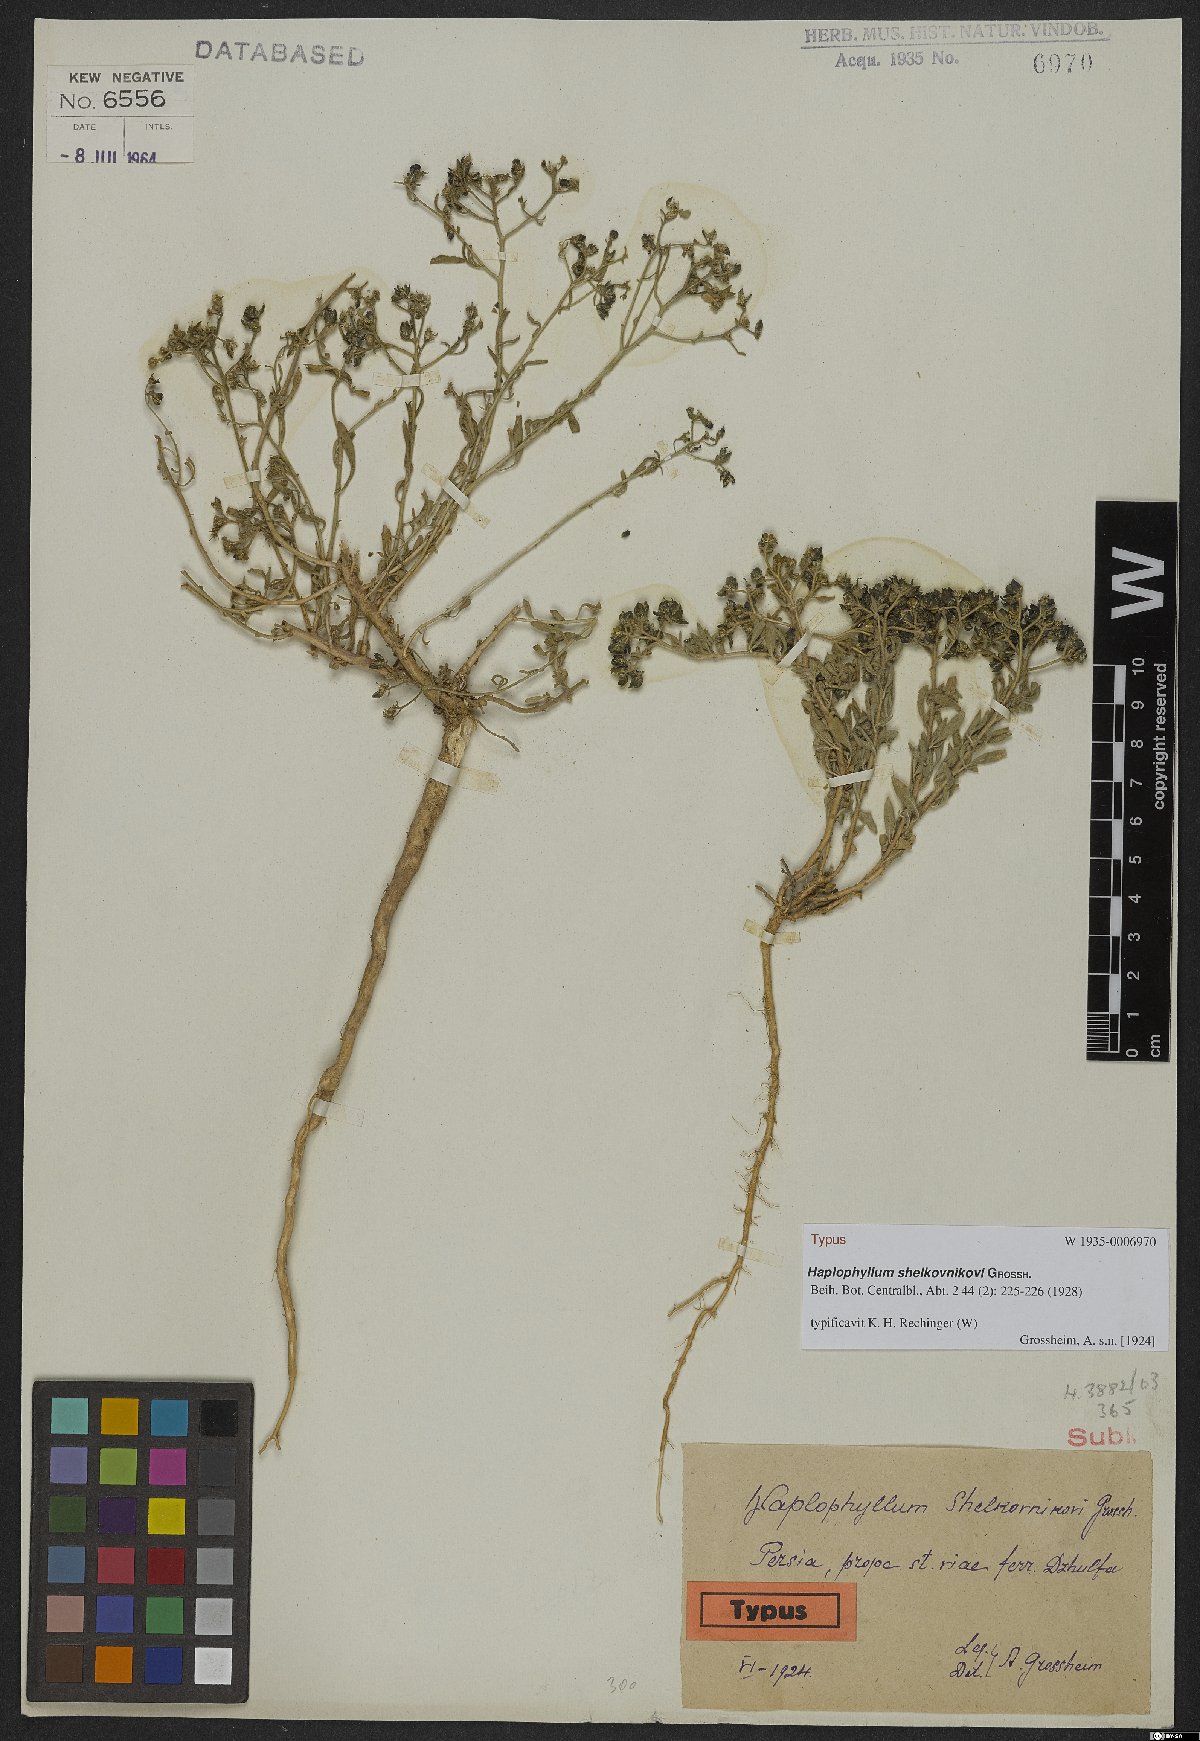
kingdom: Plantae
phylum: Tracheophyta
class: Magnoliopsida
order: Sapindales
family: Rutaceae
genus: Haplophyllum
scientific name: Haplophyllum shelkovnikovii
